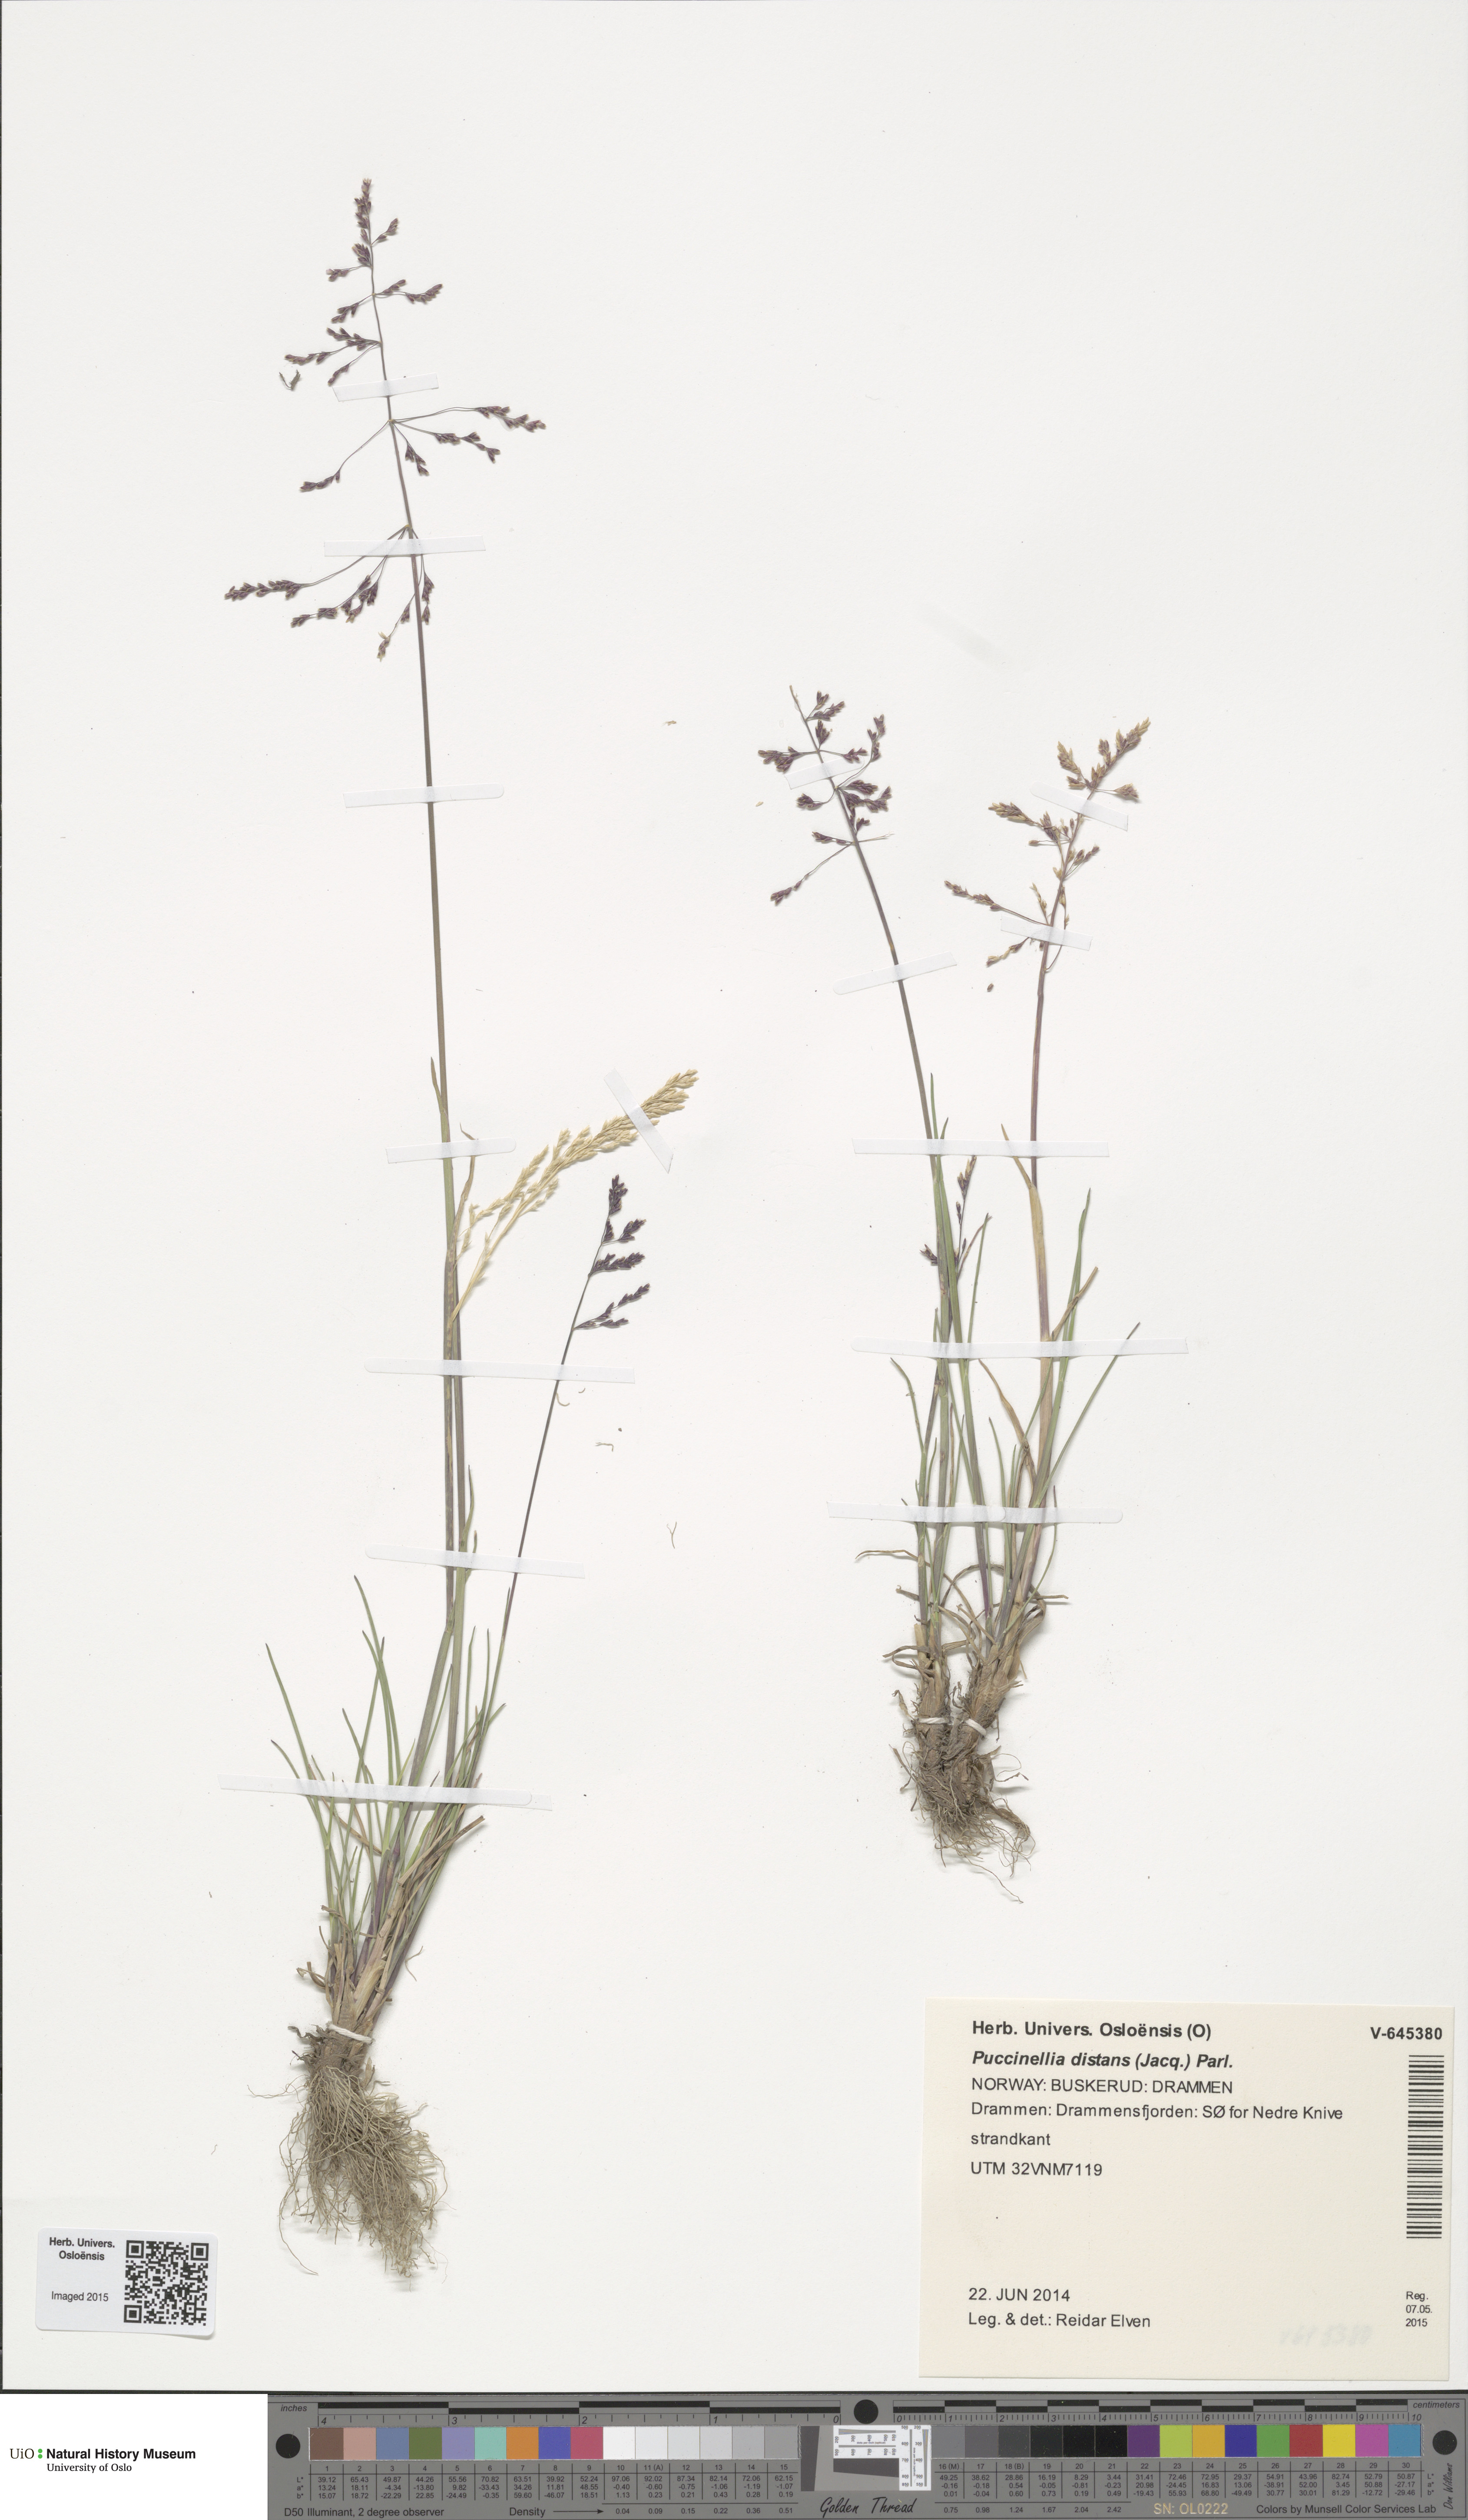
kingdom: Plantae
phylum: Tracheophyta
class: Liliopsida
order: Poales
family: Poaceae
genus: Puccinellia
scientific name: Puccinellia distans
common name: Weeping alkaligrass
